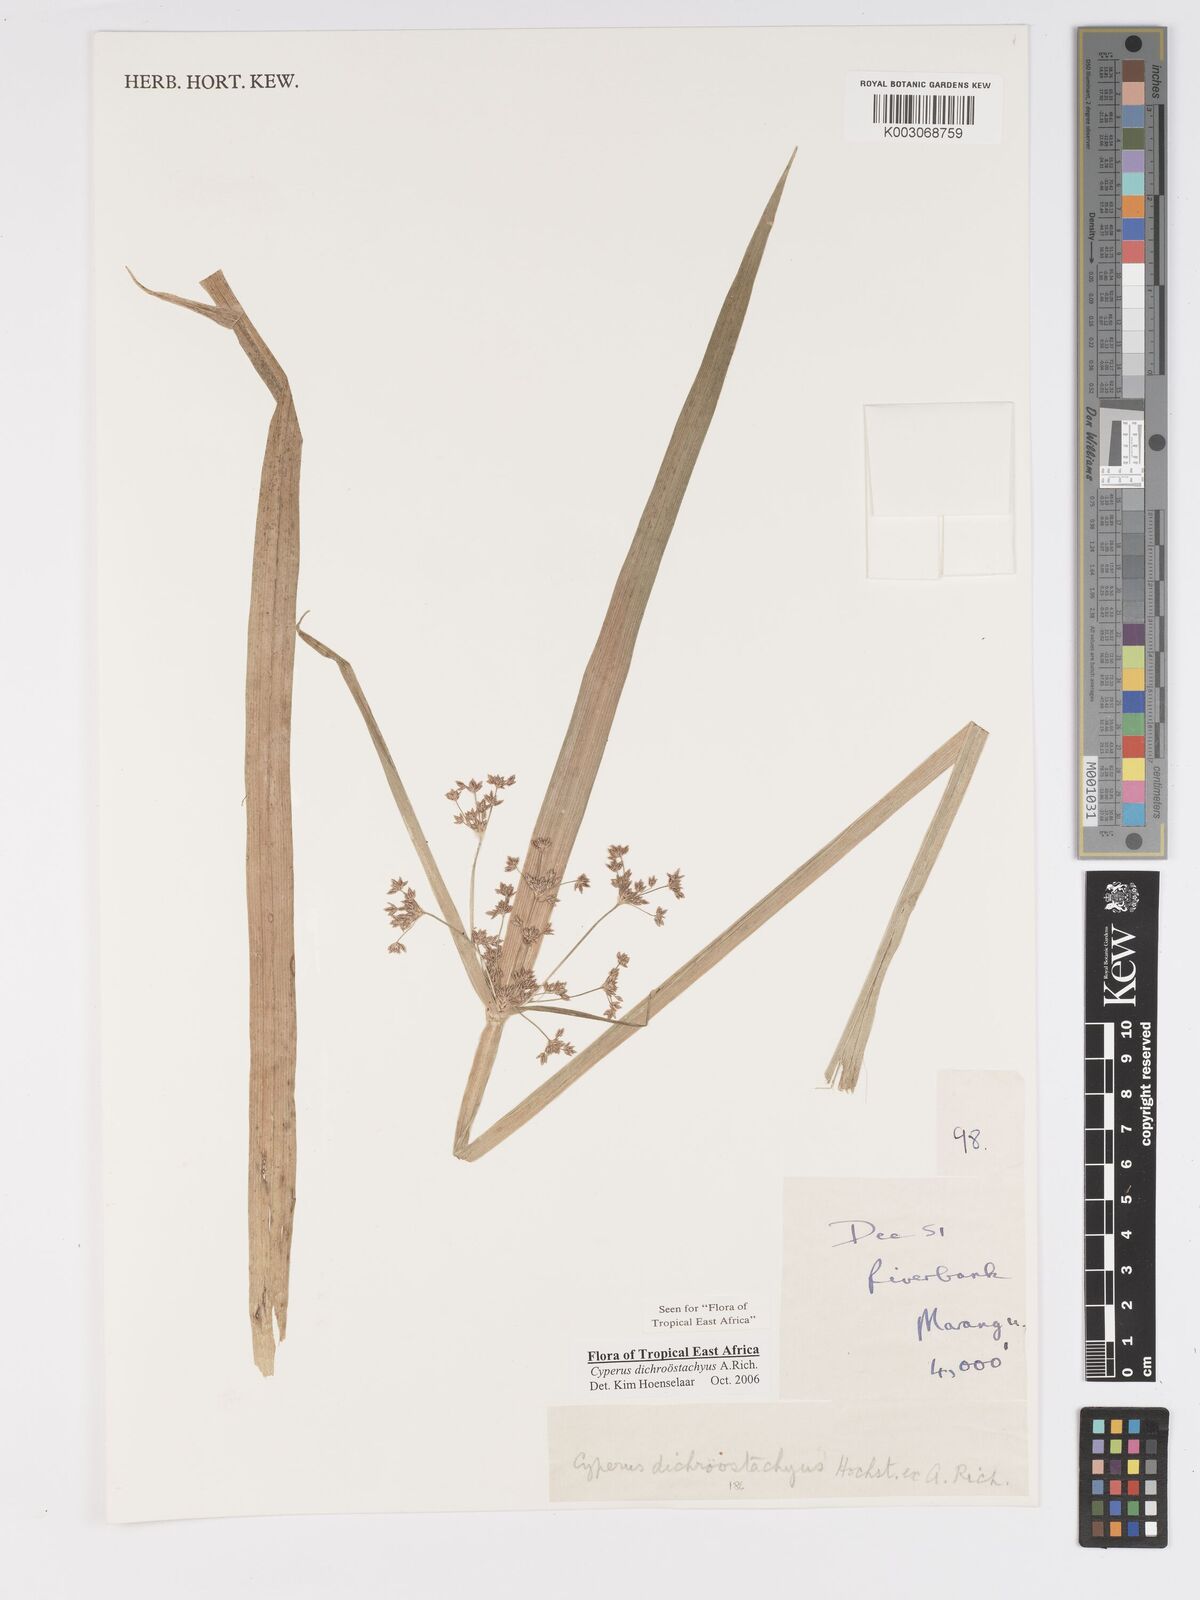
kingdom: Plantae
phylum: Tracheophyta
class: Liliopsida
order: Poales
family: Cyperaceae
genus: Cyperus
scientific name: Cyperus dichrostachyus
